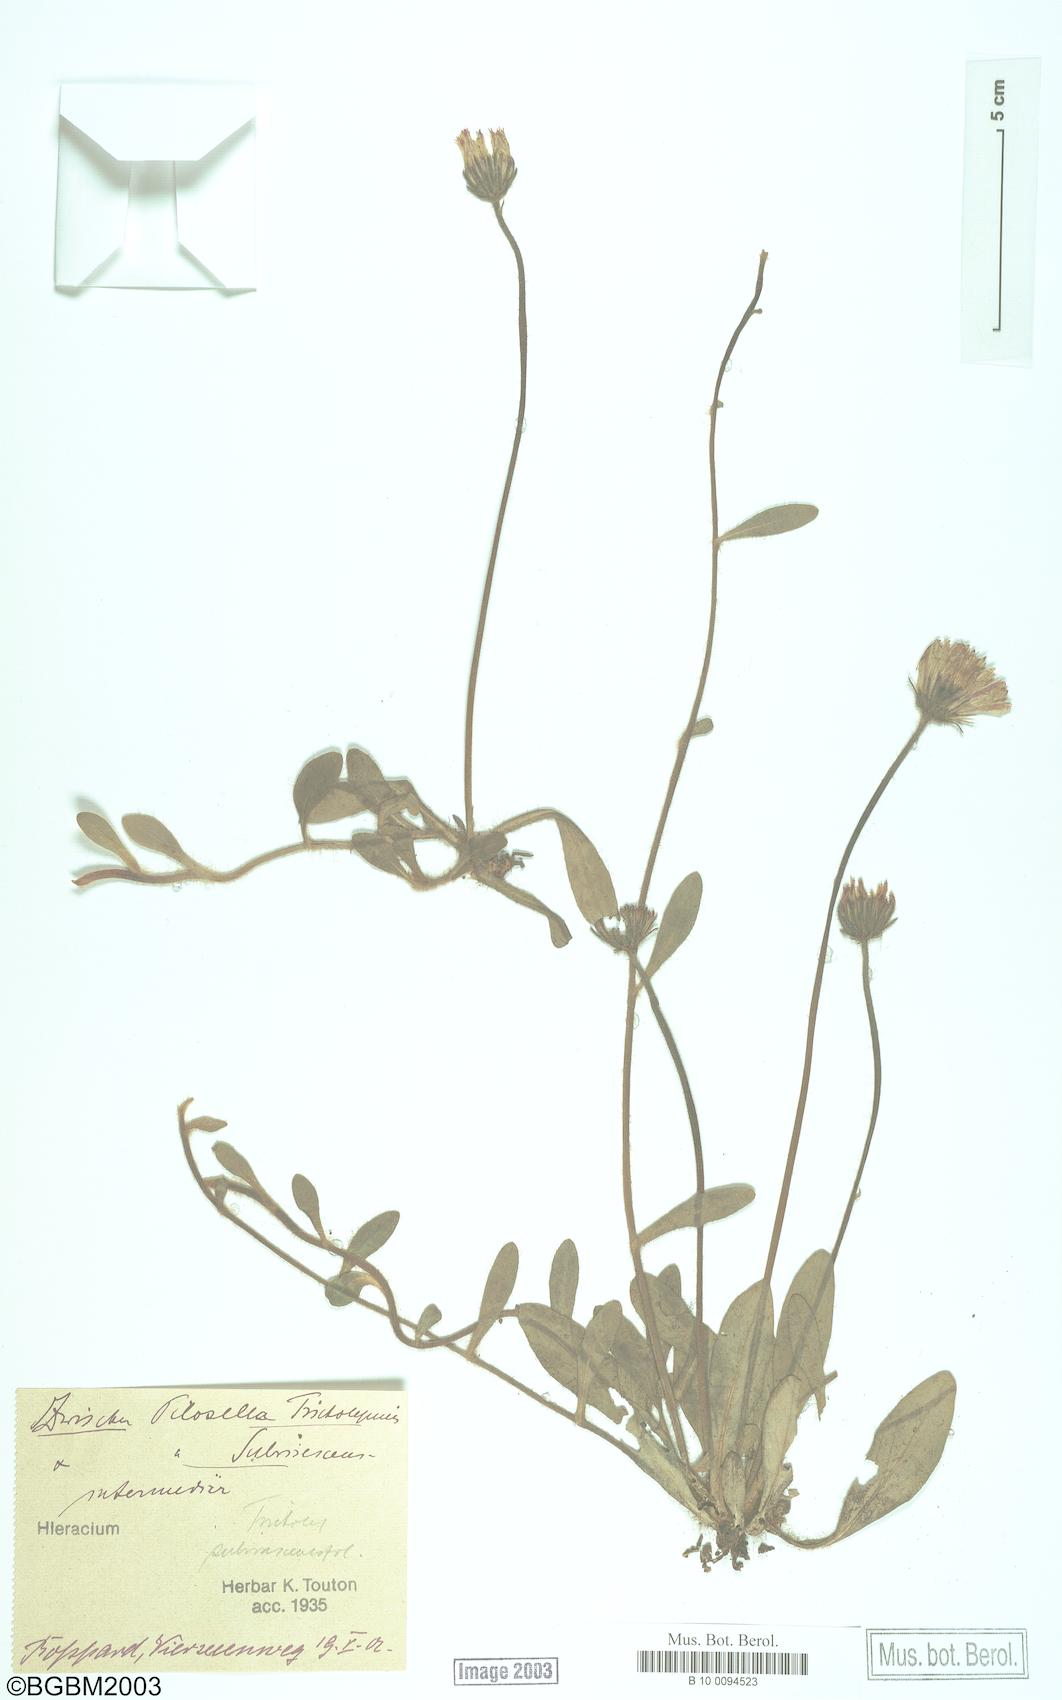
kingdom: Plantae
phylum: Tracheophyta
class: Magnoliopsida
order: Asterales
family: Asteraceae
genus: Pilosella
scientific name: Pilosella officinarum
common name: Mouse-ear hawkweed
